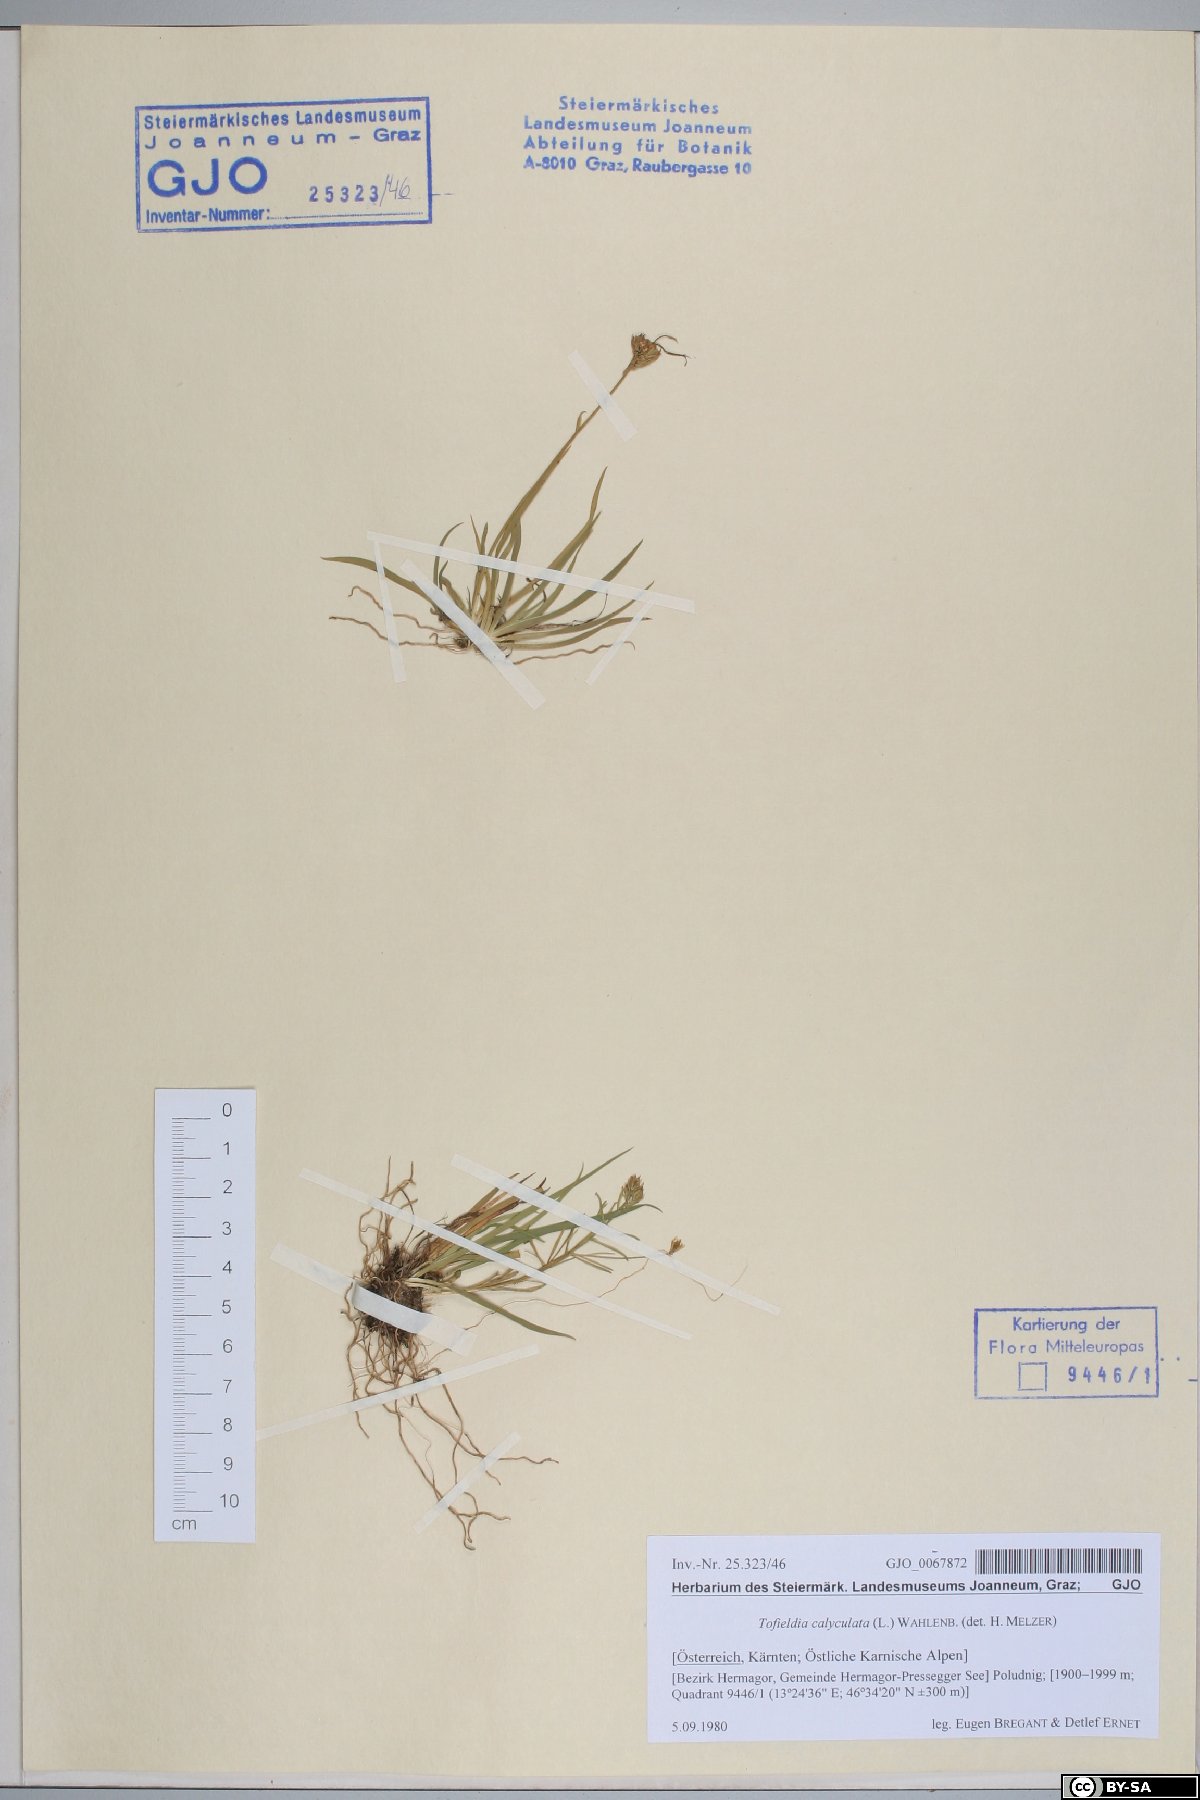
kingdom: Plantae
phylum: Tracheophyta
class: Liliopsida
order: Alismatales
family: Tofieldiaceae
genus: Tofieldia
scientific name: Tofieldia calyculata
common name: German-asphodel
